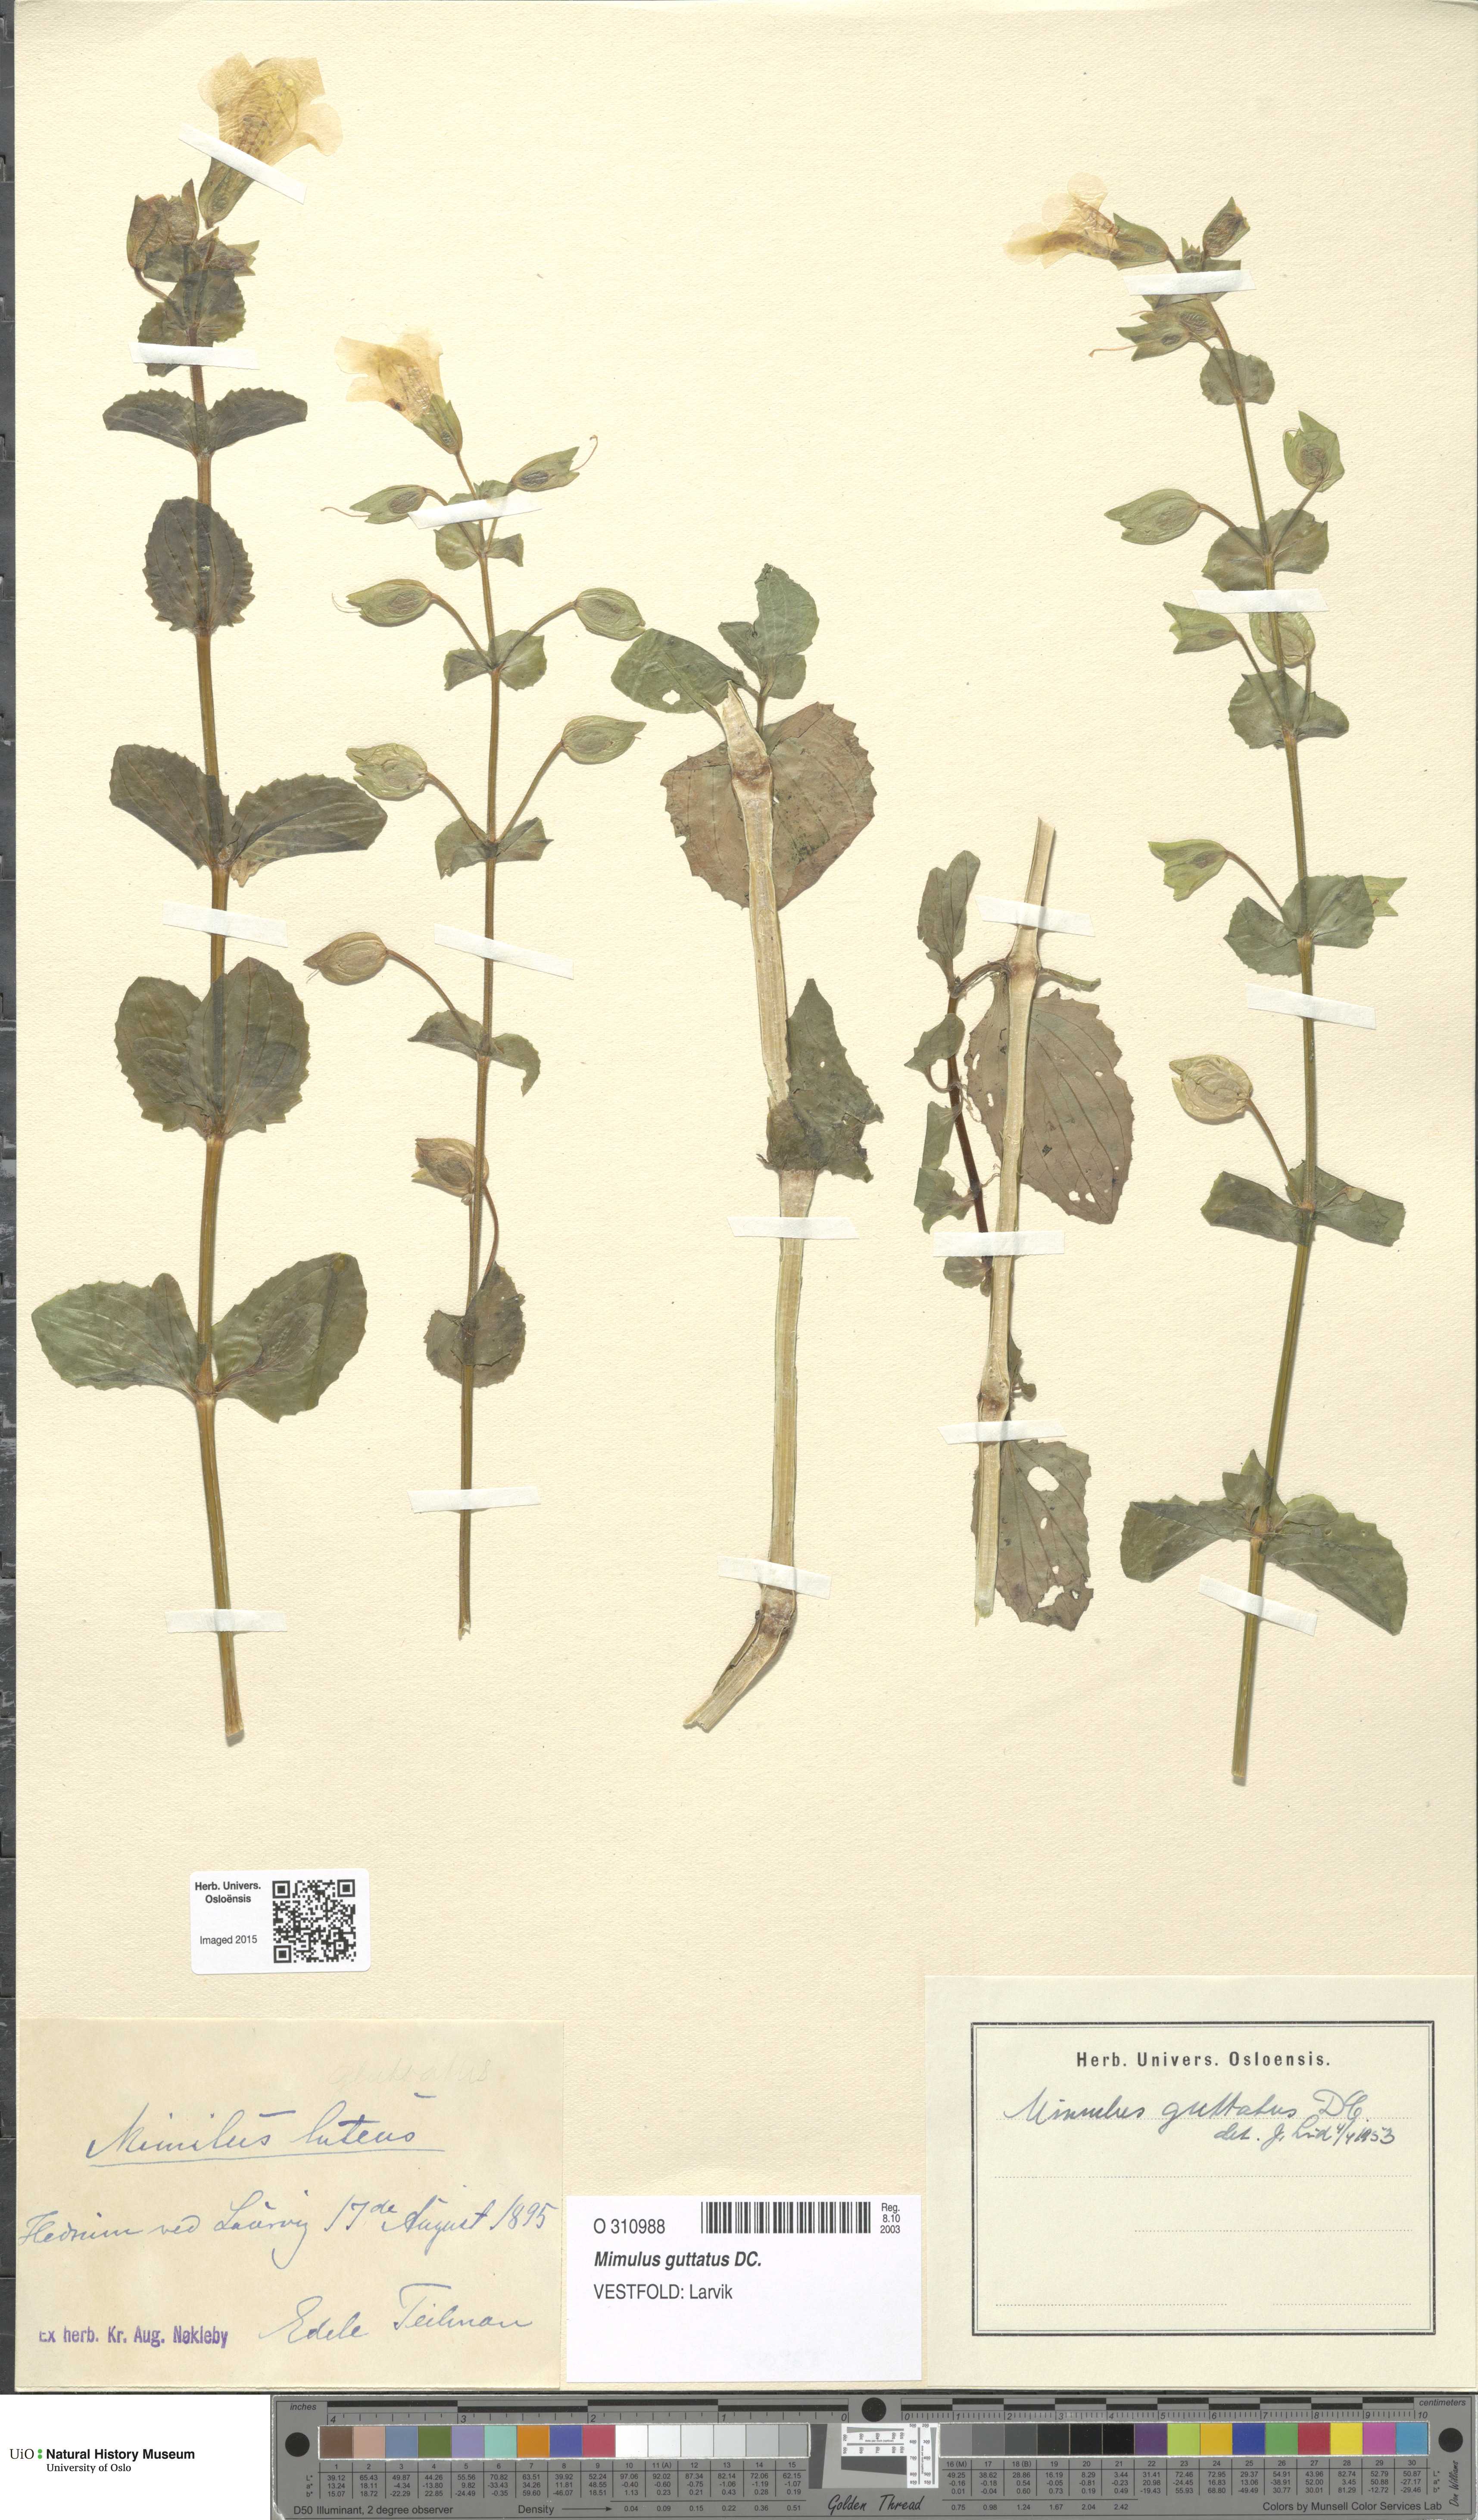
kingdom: Plantae
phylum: Tracheophyta
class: Magnoliopsida
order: Lamiales
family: Phrymaceae
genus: Erythranthe
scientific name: Erythranthe guttata
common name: Monkeyflower
